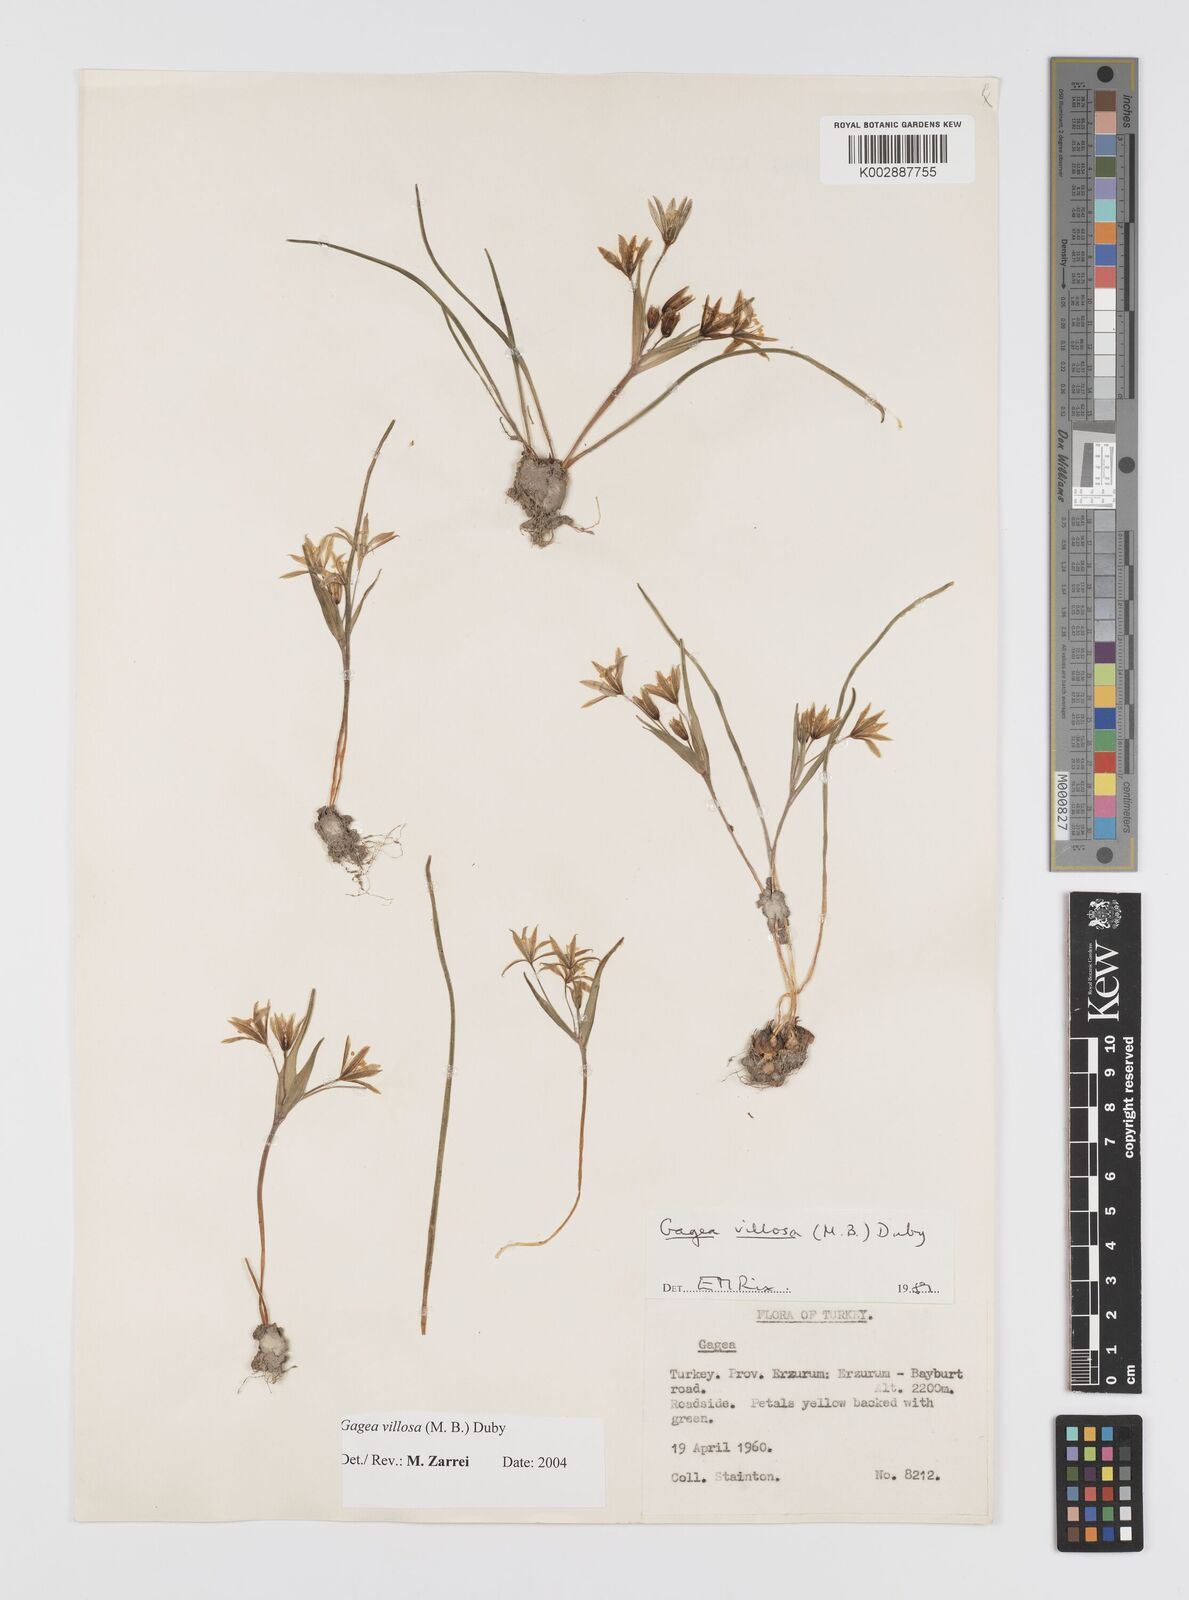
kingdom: Plantae
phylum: Tracheophyta
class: Liliopsida
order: Liliales
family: Liliaceae
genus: Gagea
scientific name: Gagea minima
